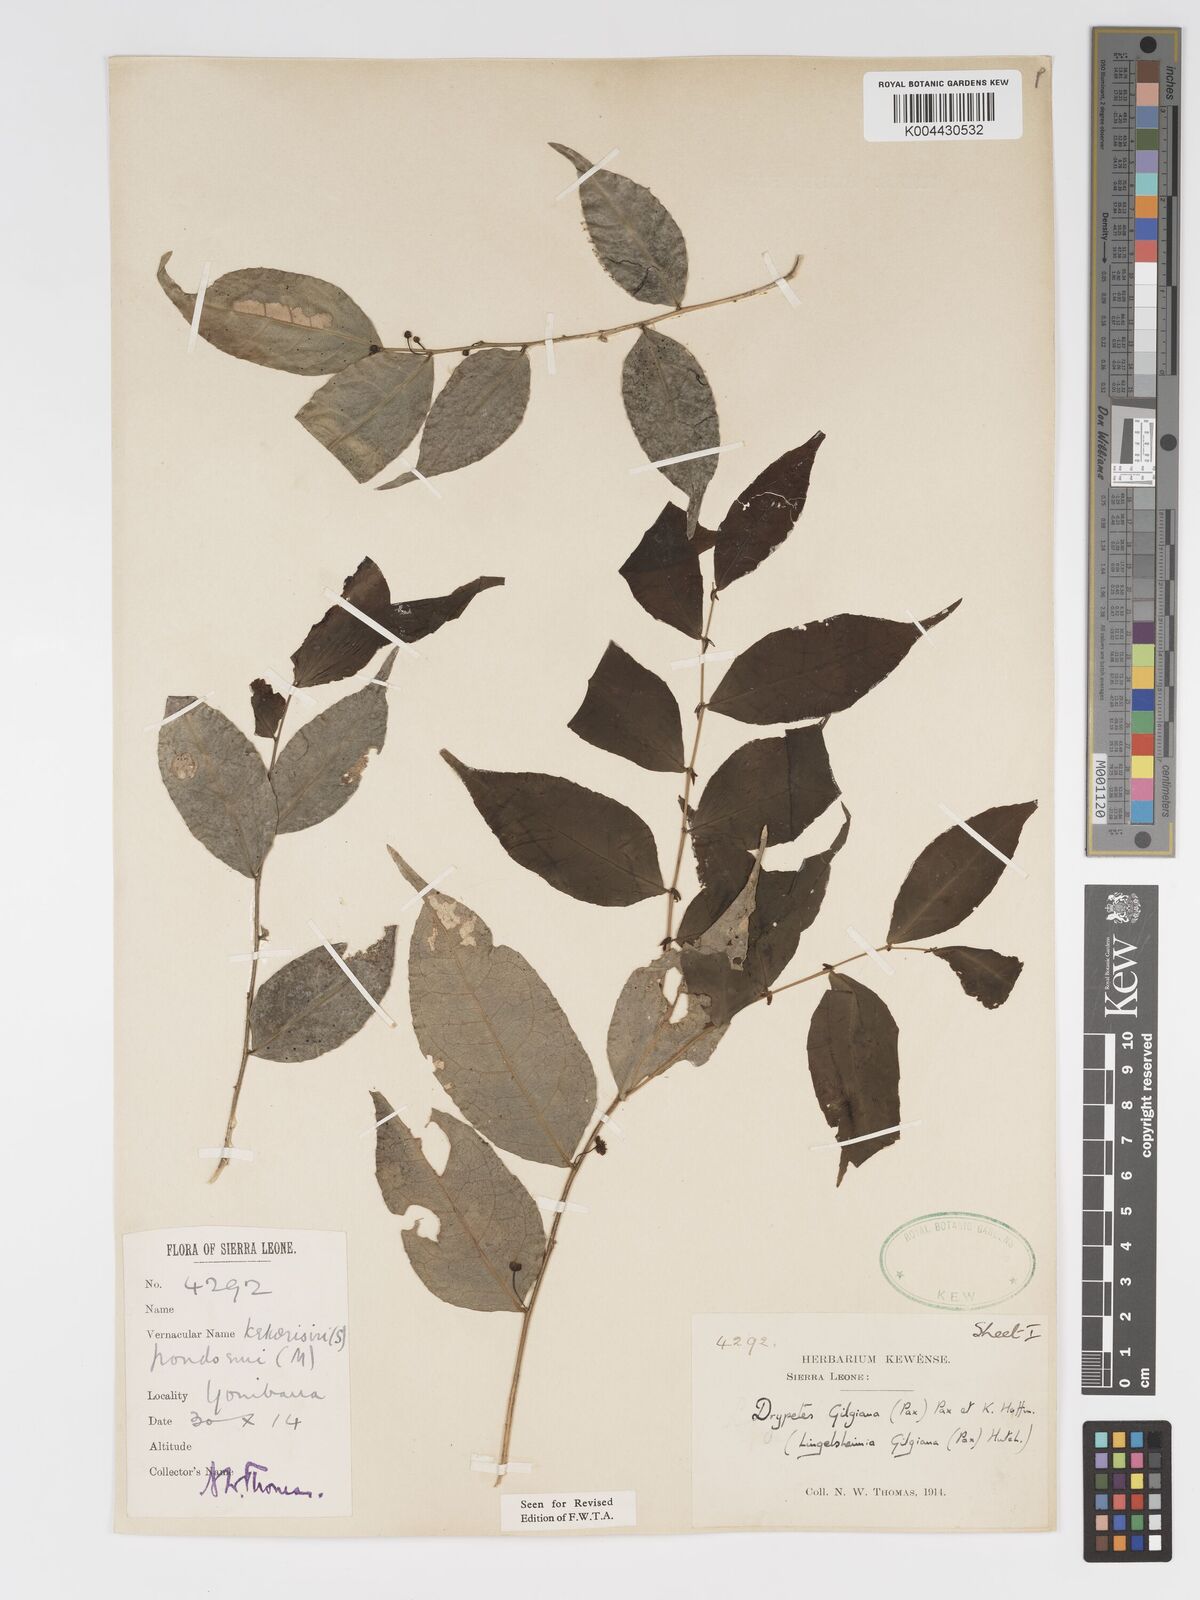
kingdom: Plantae
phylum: Tracheophyta
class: Magnoliopsida
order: Malpighiales
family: Putranjivaceae
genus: Drypetes
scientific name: Drypetes gilgiana
